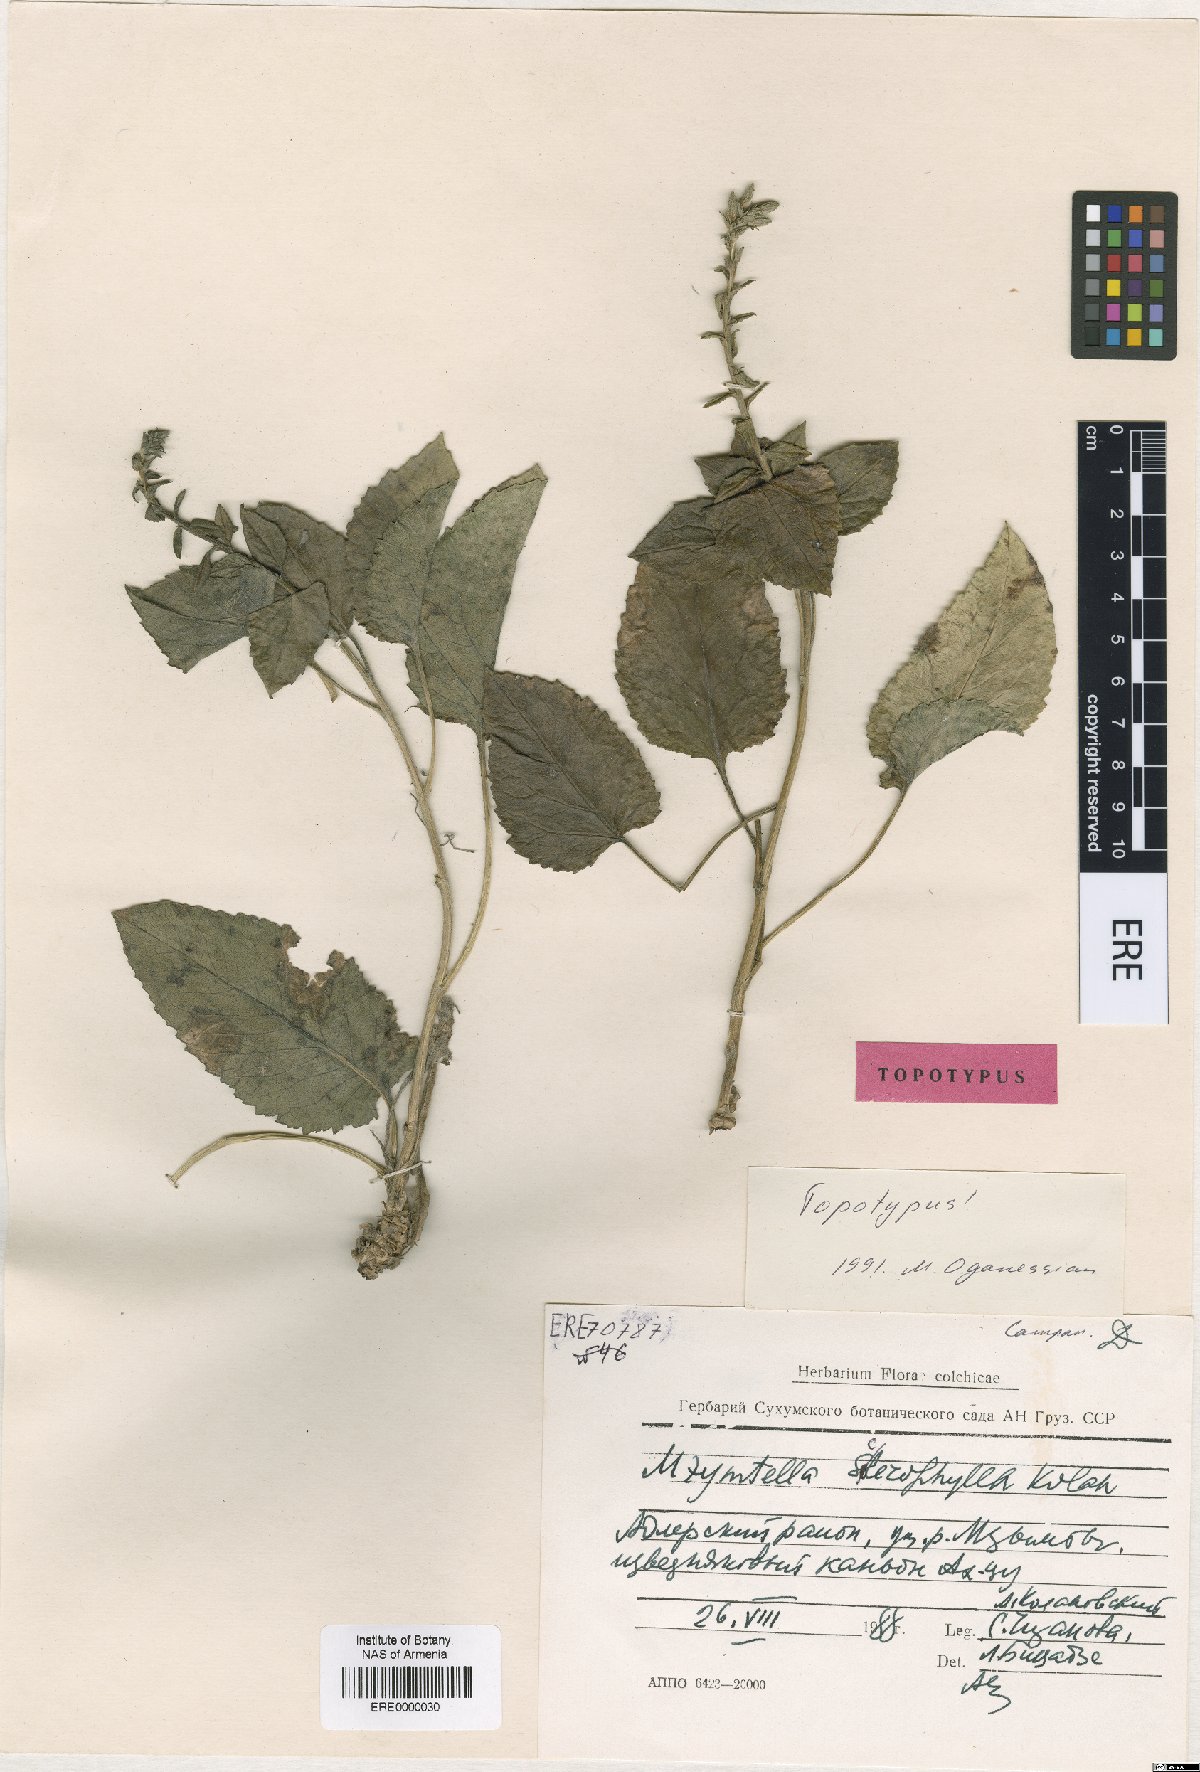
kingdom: Plantae
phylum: Tracheophyta
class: Magnoliopsida
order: Asterales
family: Campanulaceae
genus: Campanula
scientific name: Campanula sclerophylla
